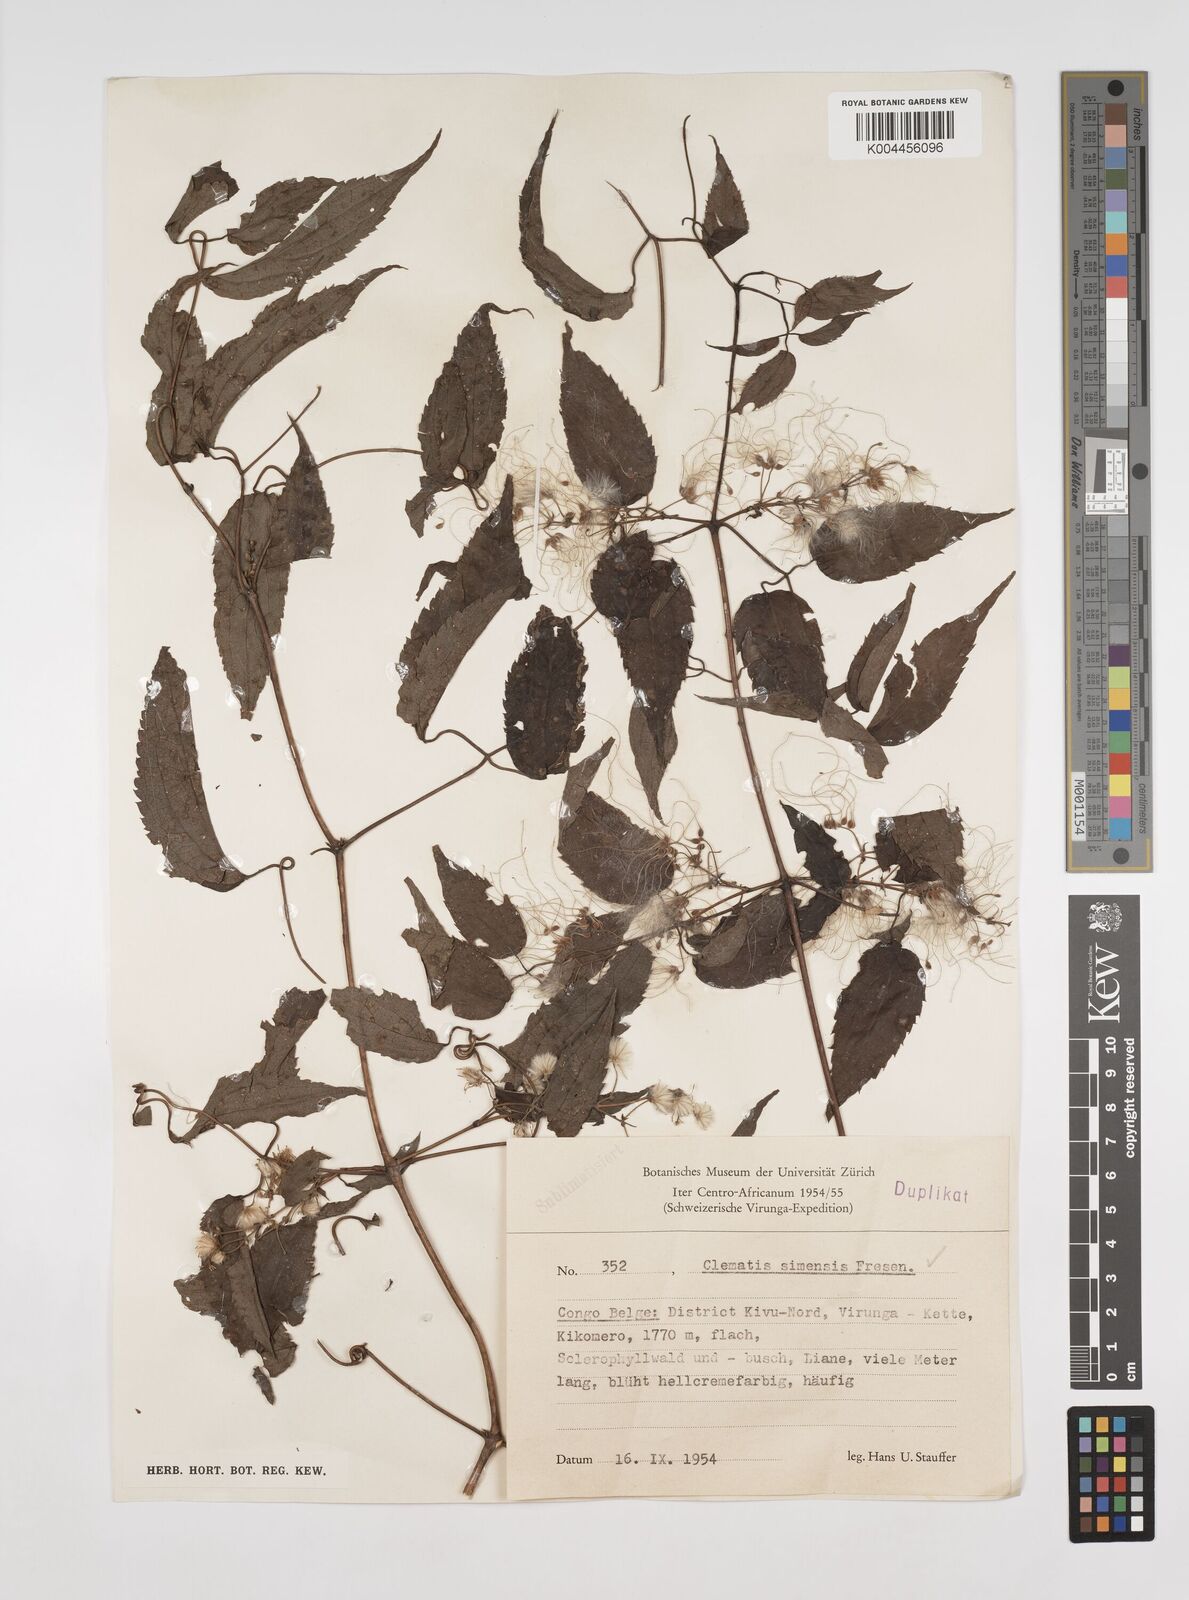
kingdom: Plantae
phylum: Tracheophyta
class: Magnoliopsida
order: Ranunculales
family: Ranunculaceae
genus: Clematis
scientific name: Clematis simensis
